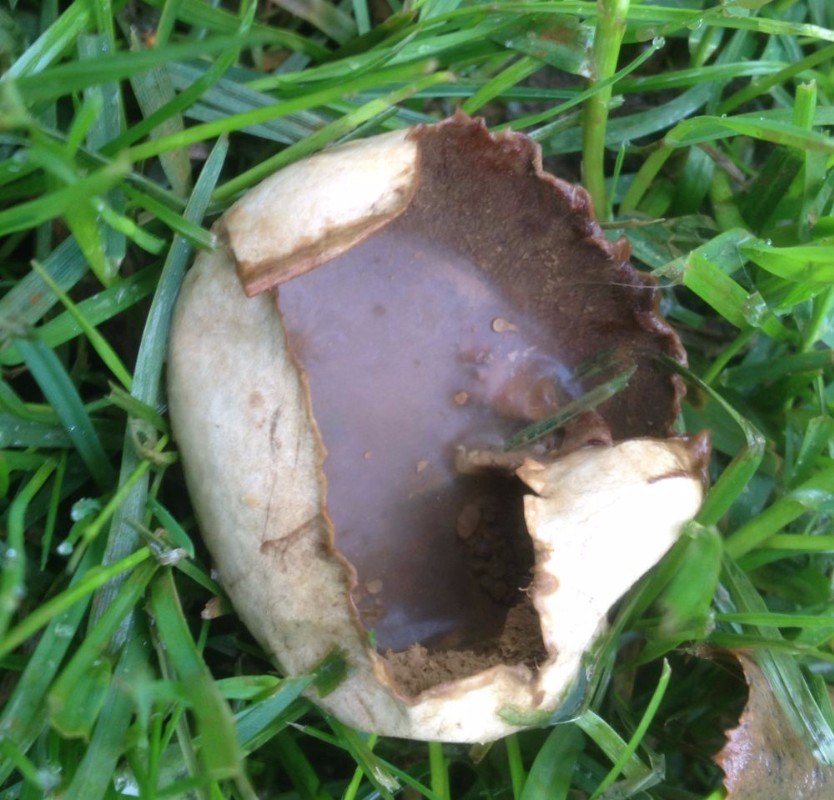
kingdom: Fungi
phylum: Basidiomycota
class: Agaricomycetes
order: Agaricales
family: Lycoperdaceae
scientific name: Lycoperdaceae
